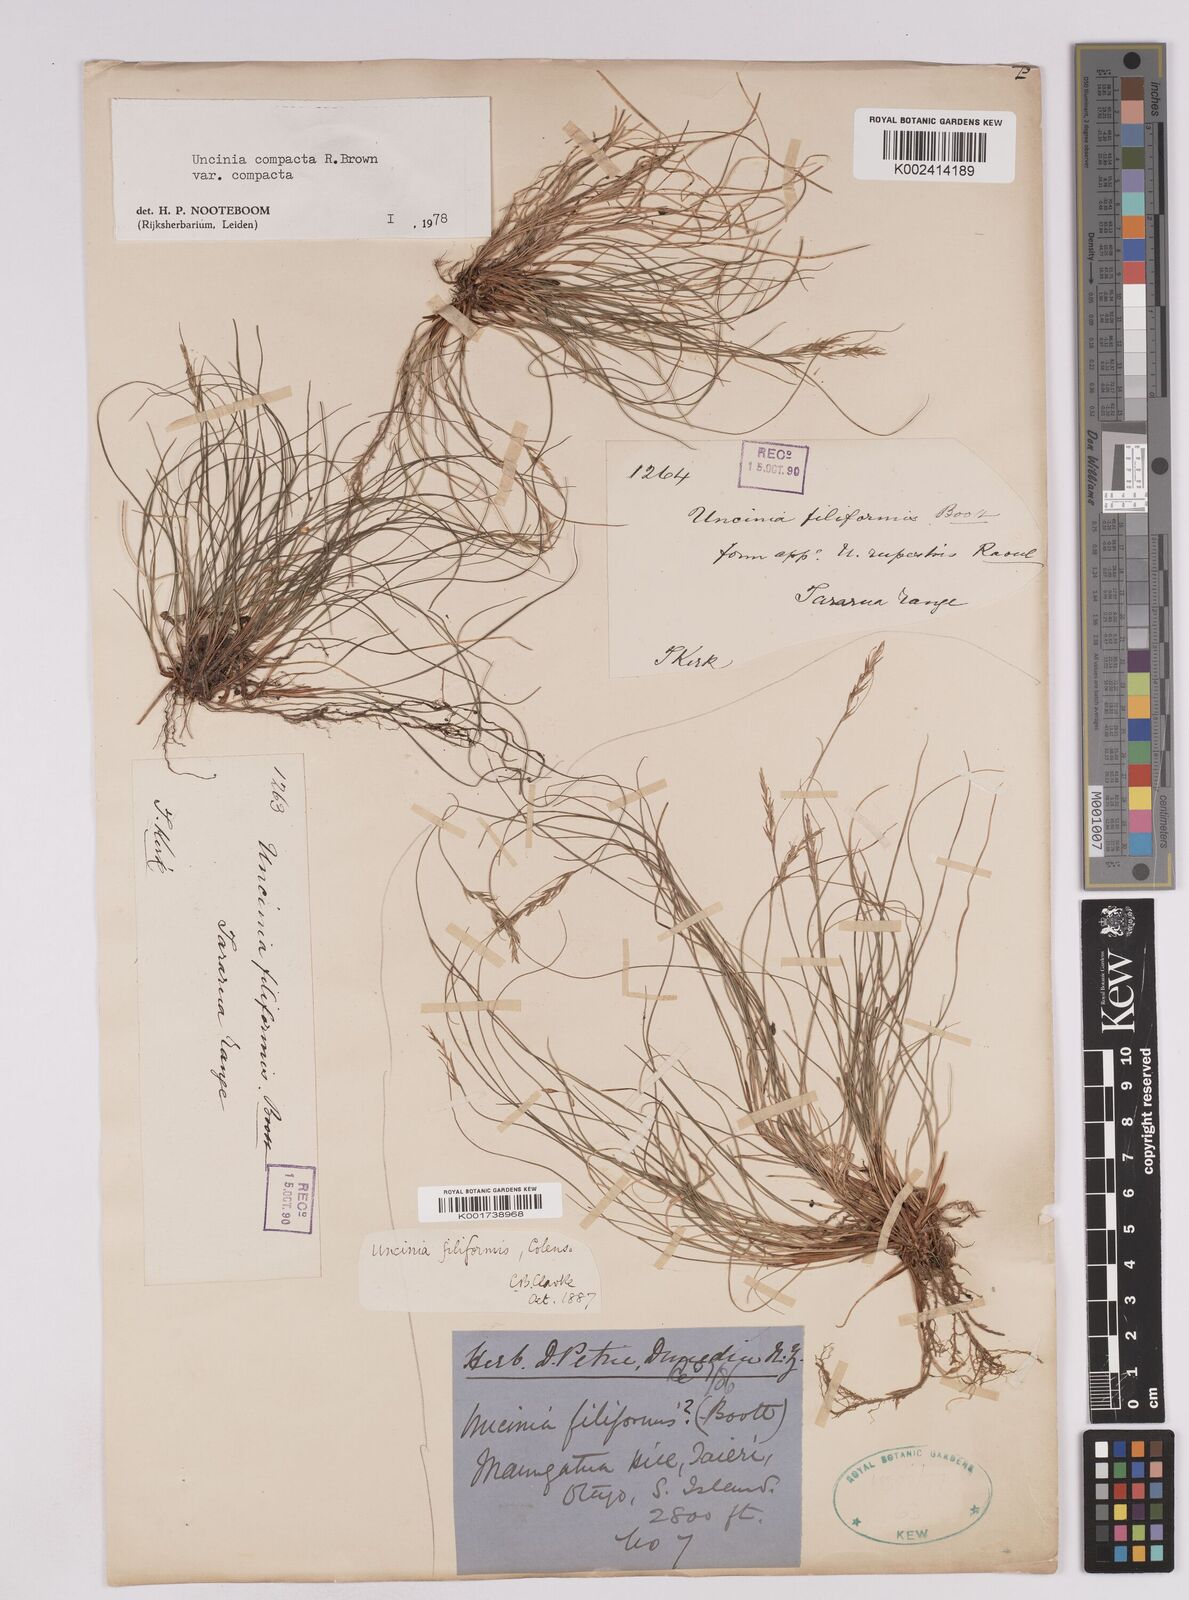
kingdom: Plantae
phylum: Tracheophyta
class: Liliopsida
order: Poales
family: Cyperaceae
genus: Carex
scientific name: Carex austrocompacta
